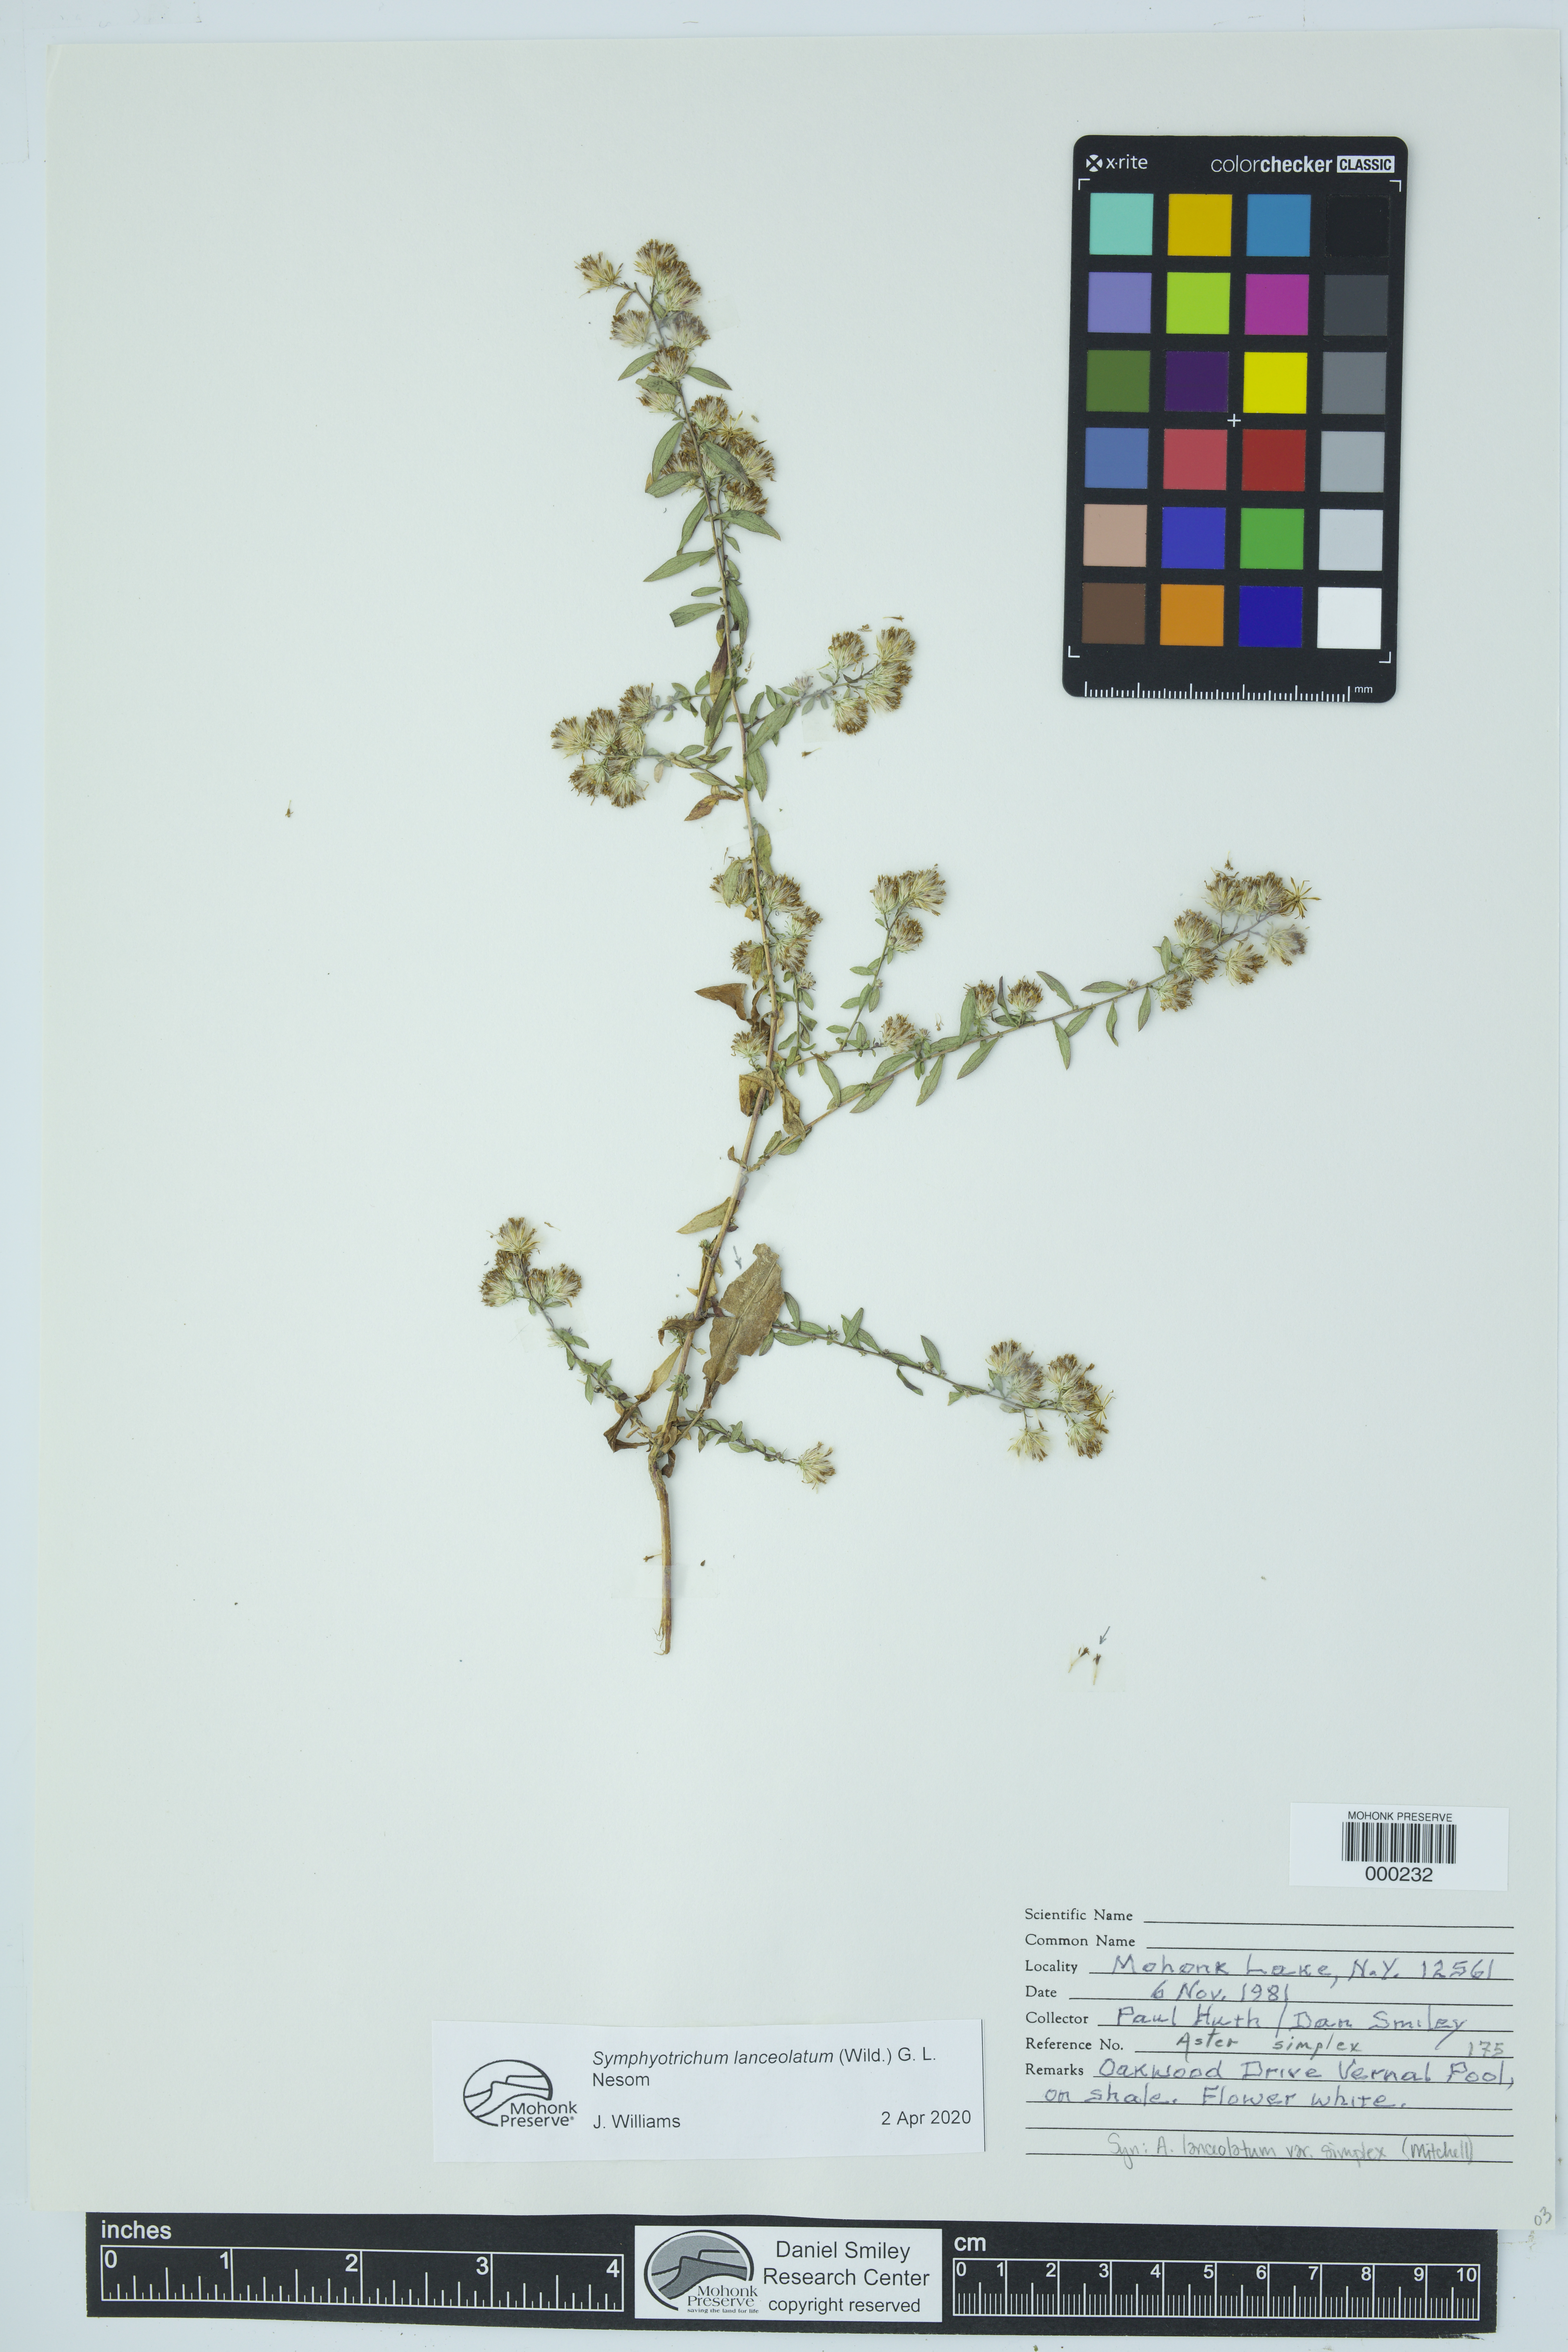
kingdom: Plantae
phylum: Tracheophyta
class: Magnoliopsida
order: Asterales
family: Asteraceae
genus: Symphyotrichum
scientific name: Symphyotrichum lanceolatum
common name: Panicled aster
